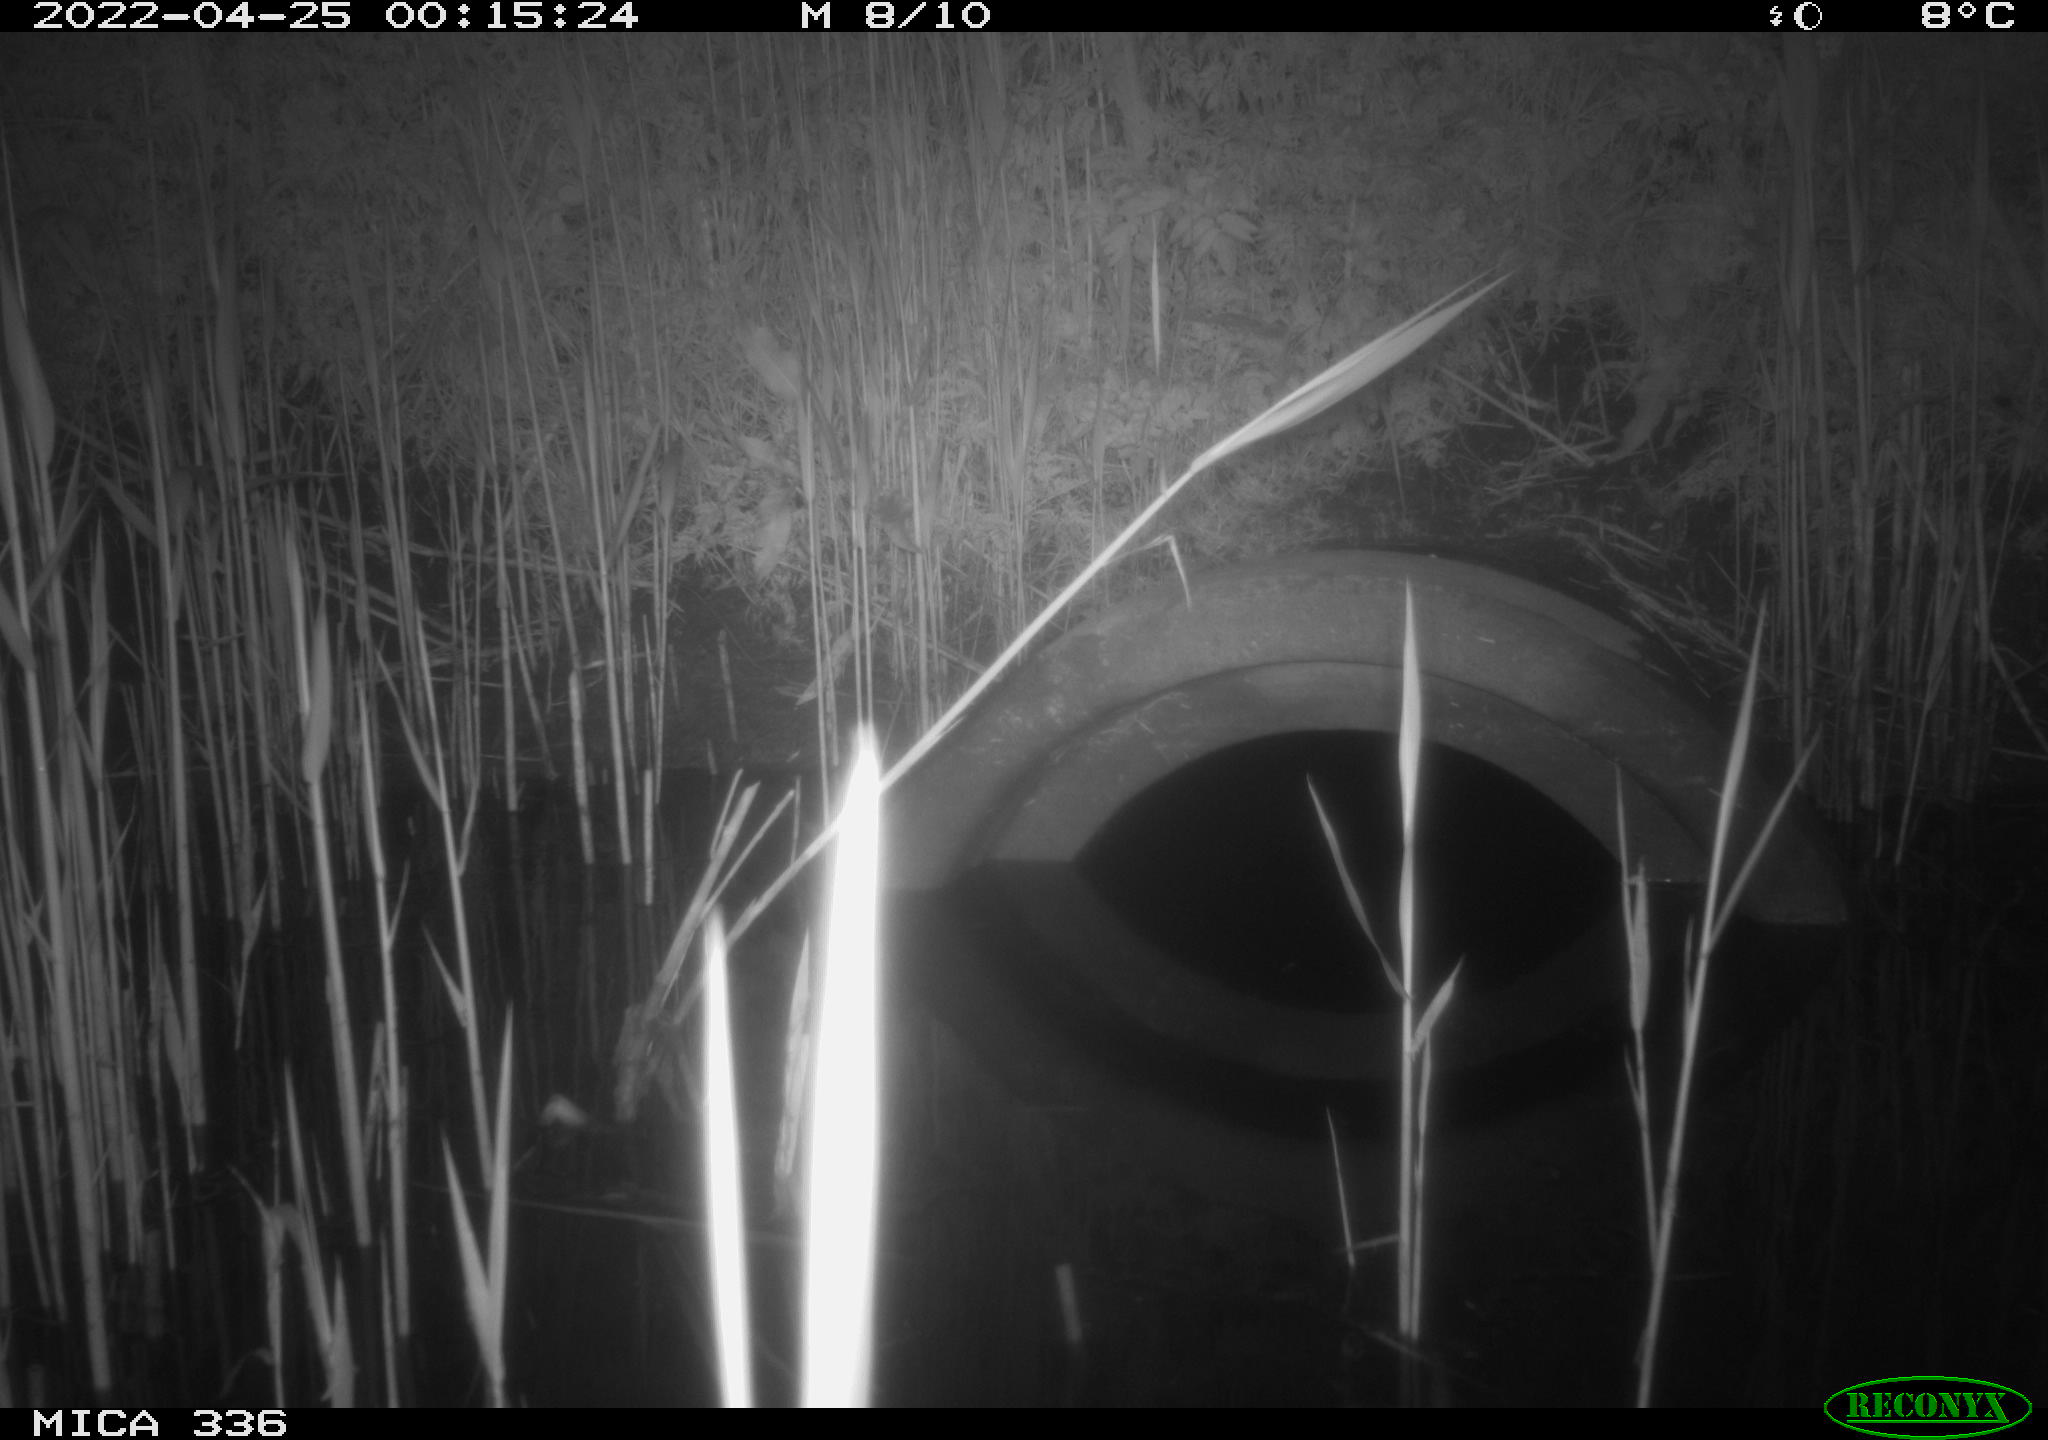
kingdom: Animalia
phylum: Chordata
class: Mammalia
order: Rodentia
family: Muridae
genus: Rattus
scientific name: Rattus norvegicus
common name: Brown rat
